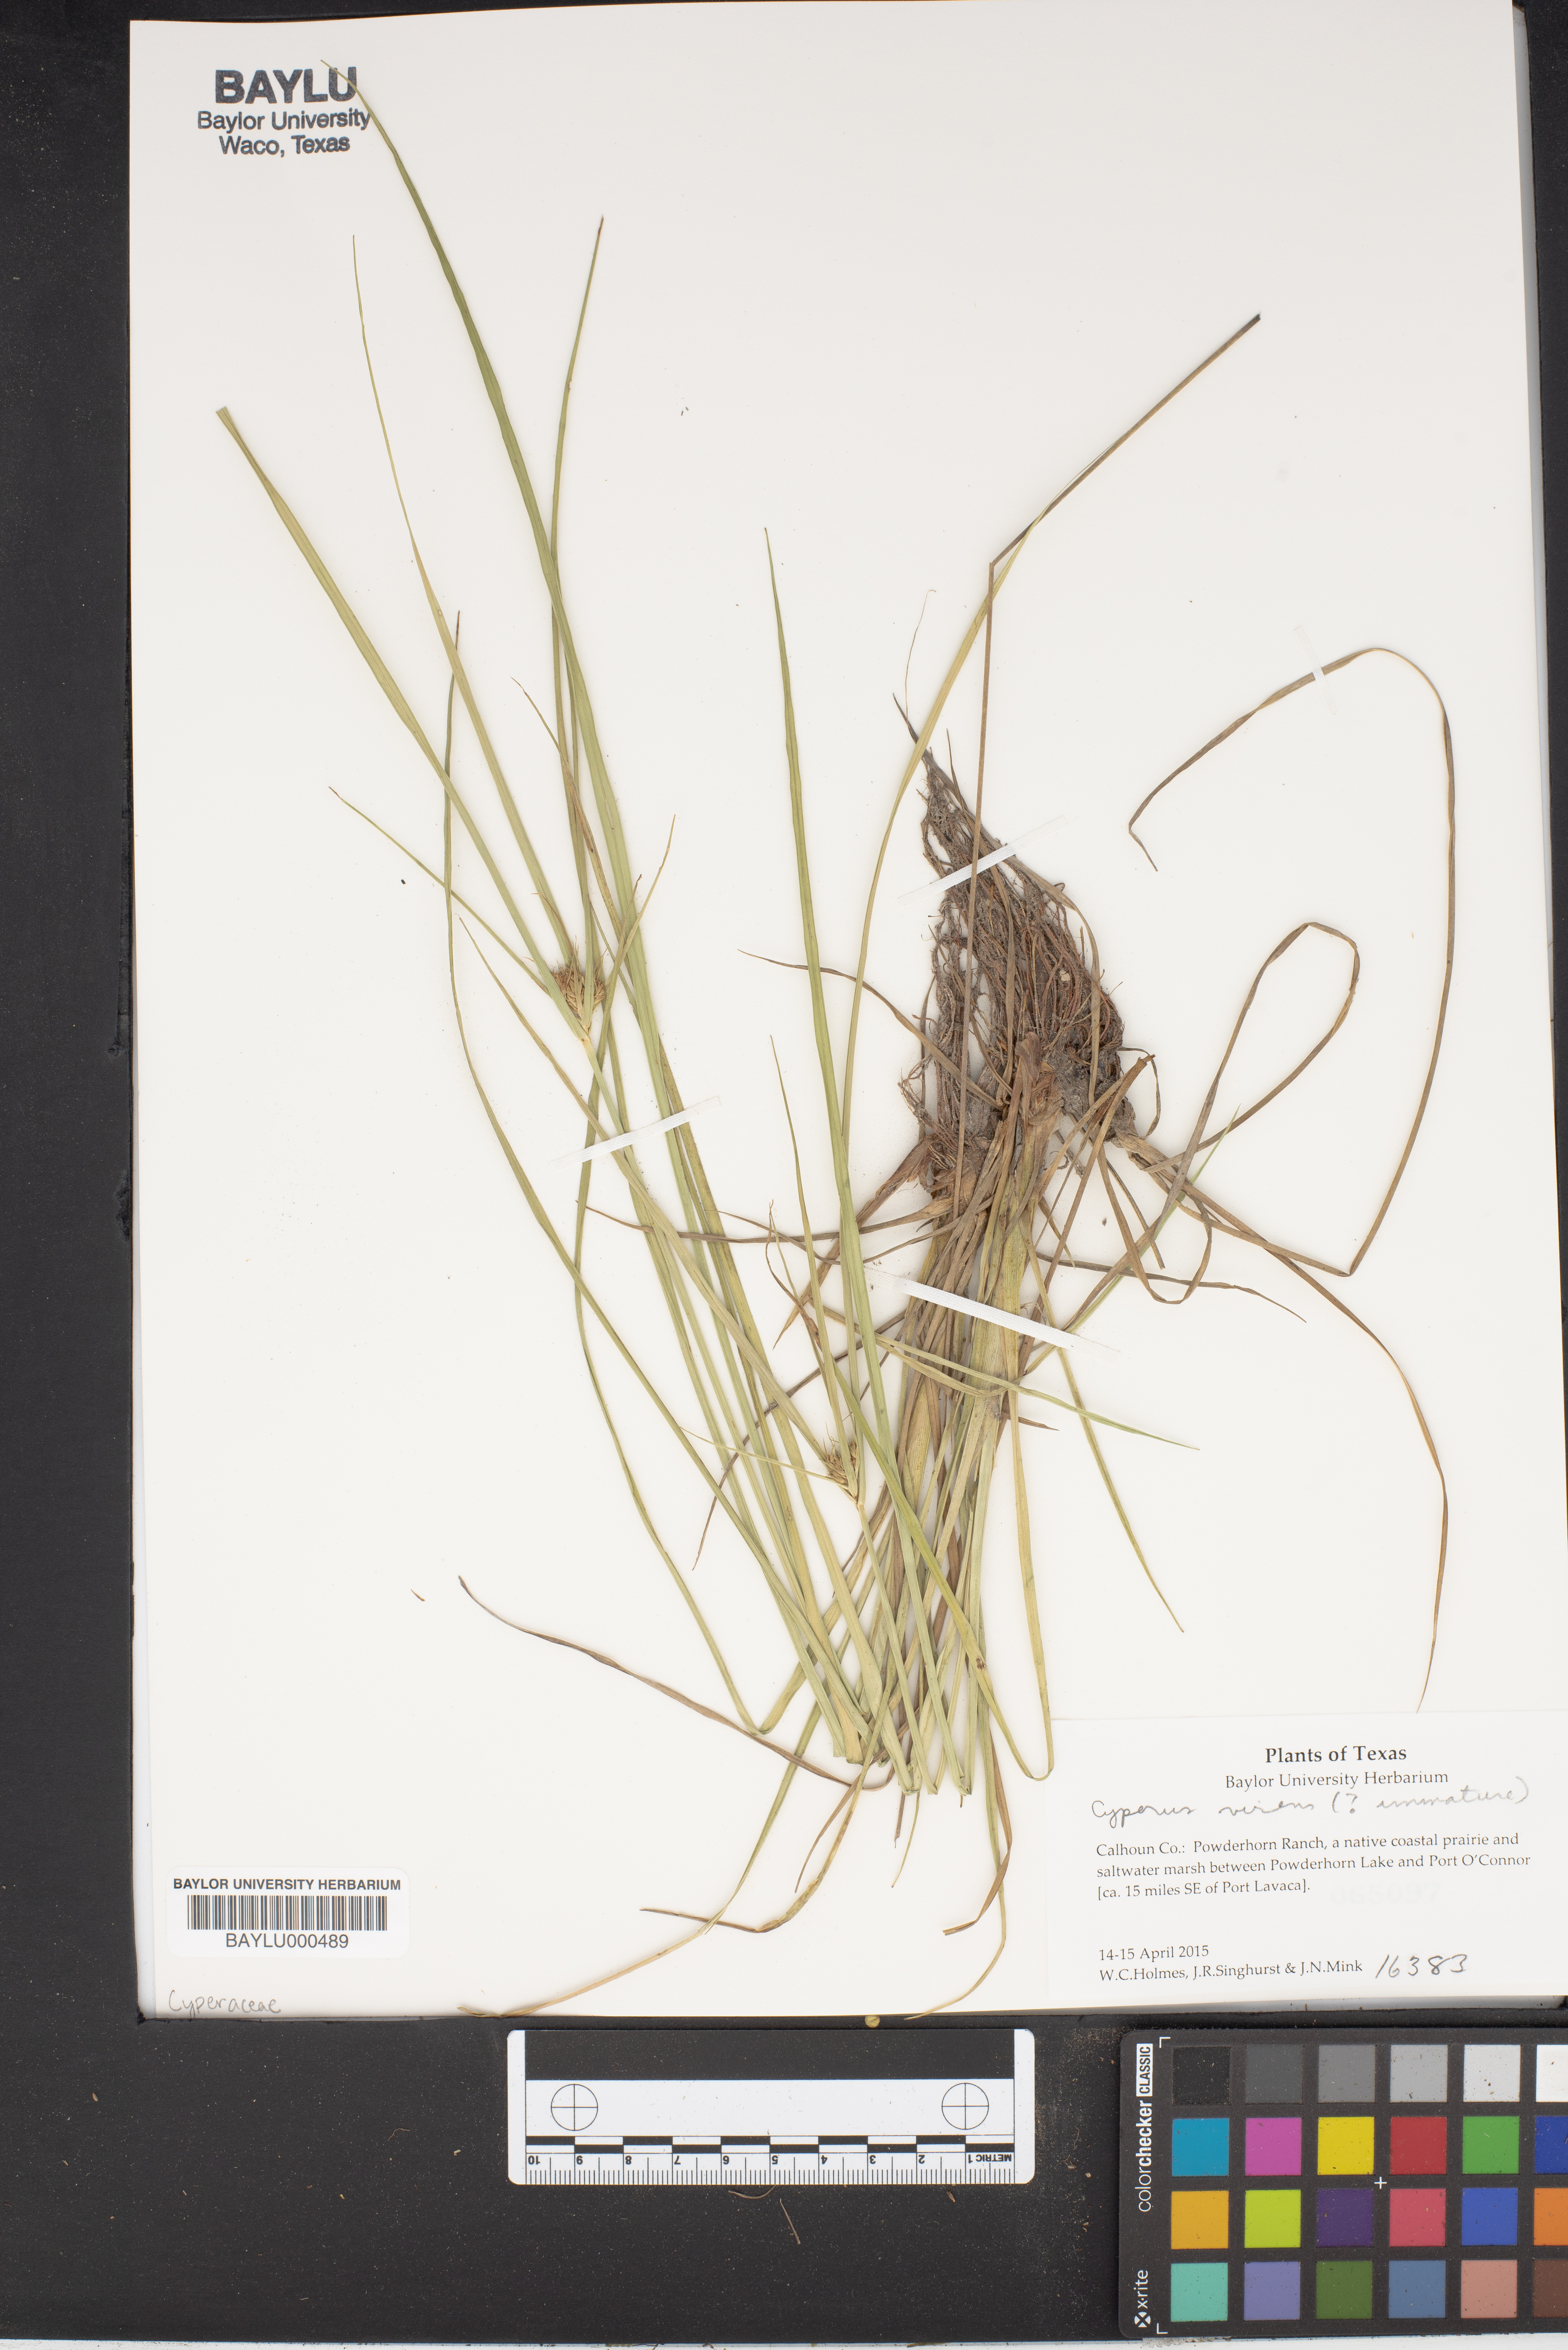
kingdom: Plantae
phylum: Tracheophyta
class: Liliopsida
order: Poales
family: Cyperaceae
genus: Cyperus
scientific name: Cyperus
